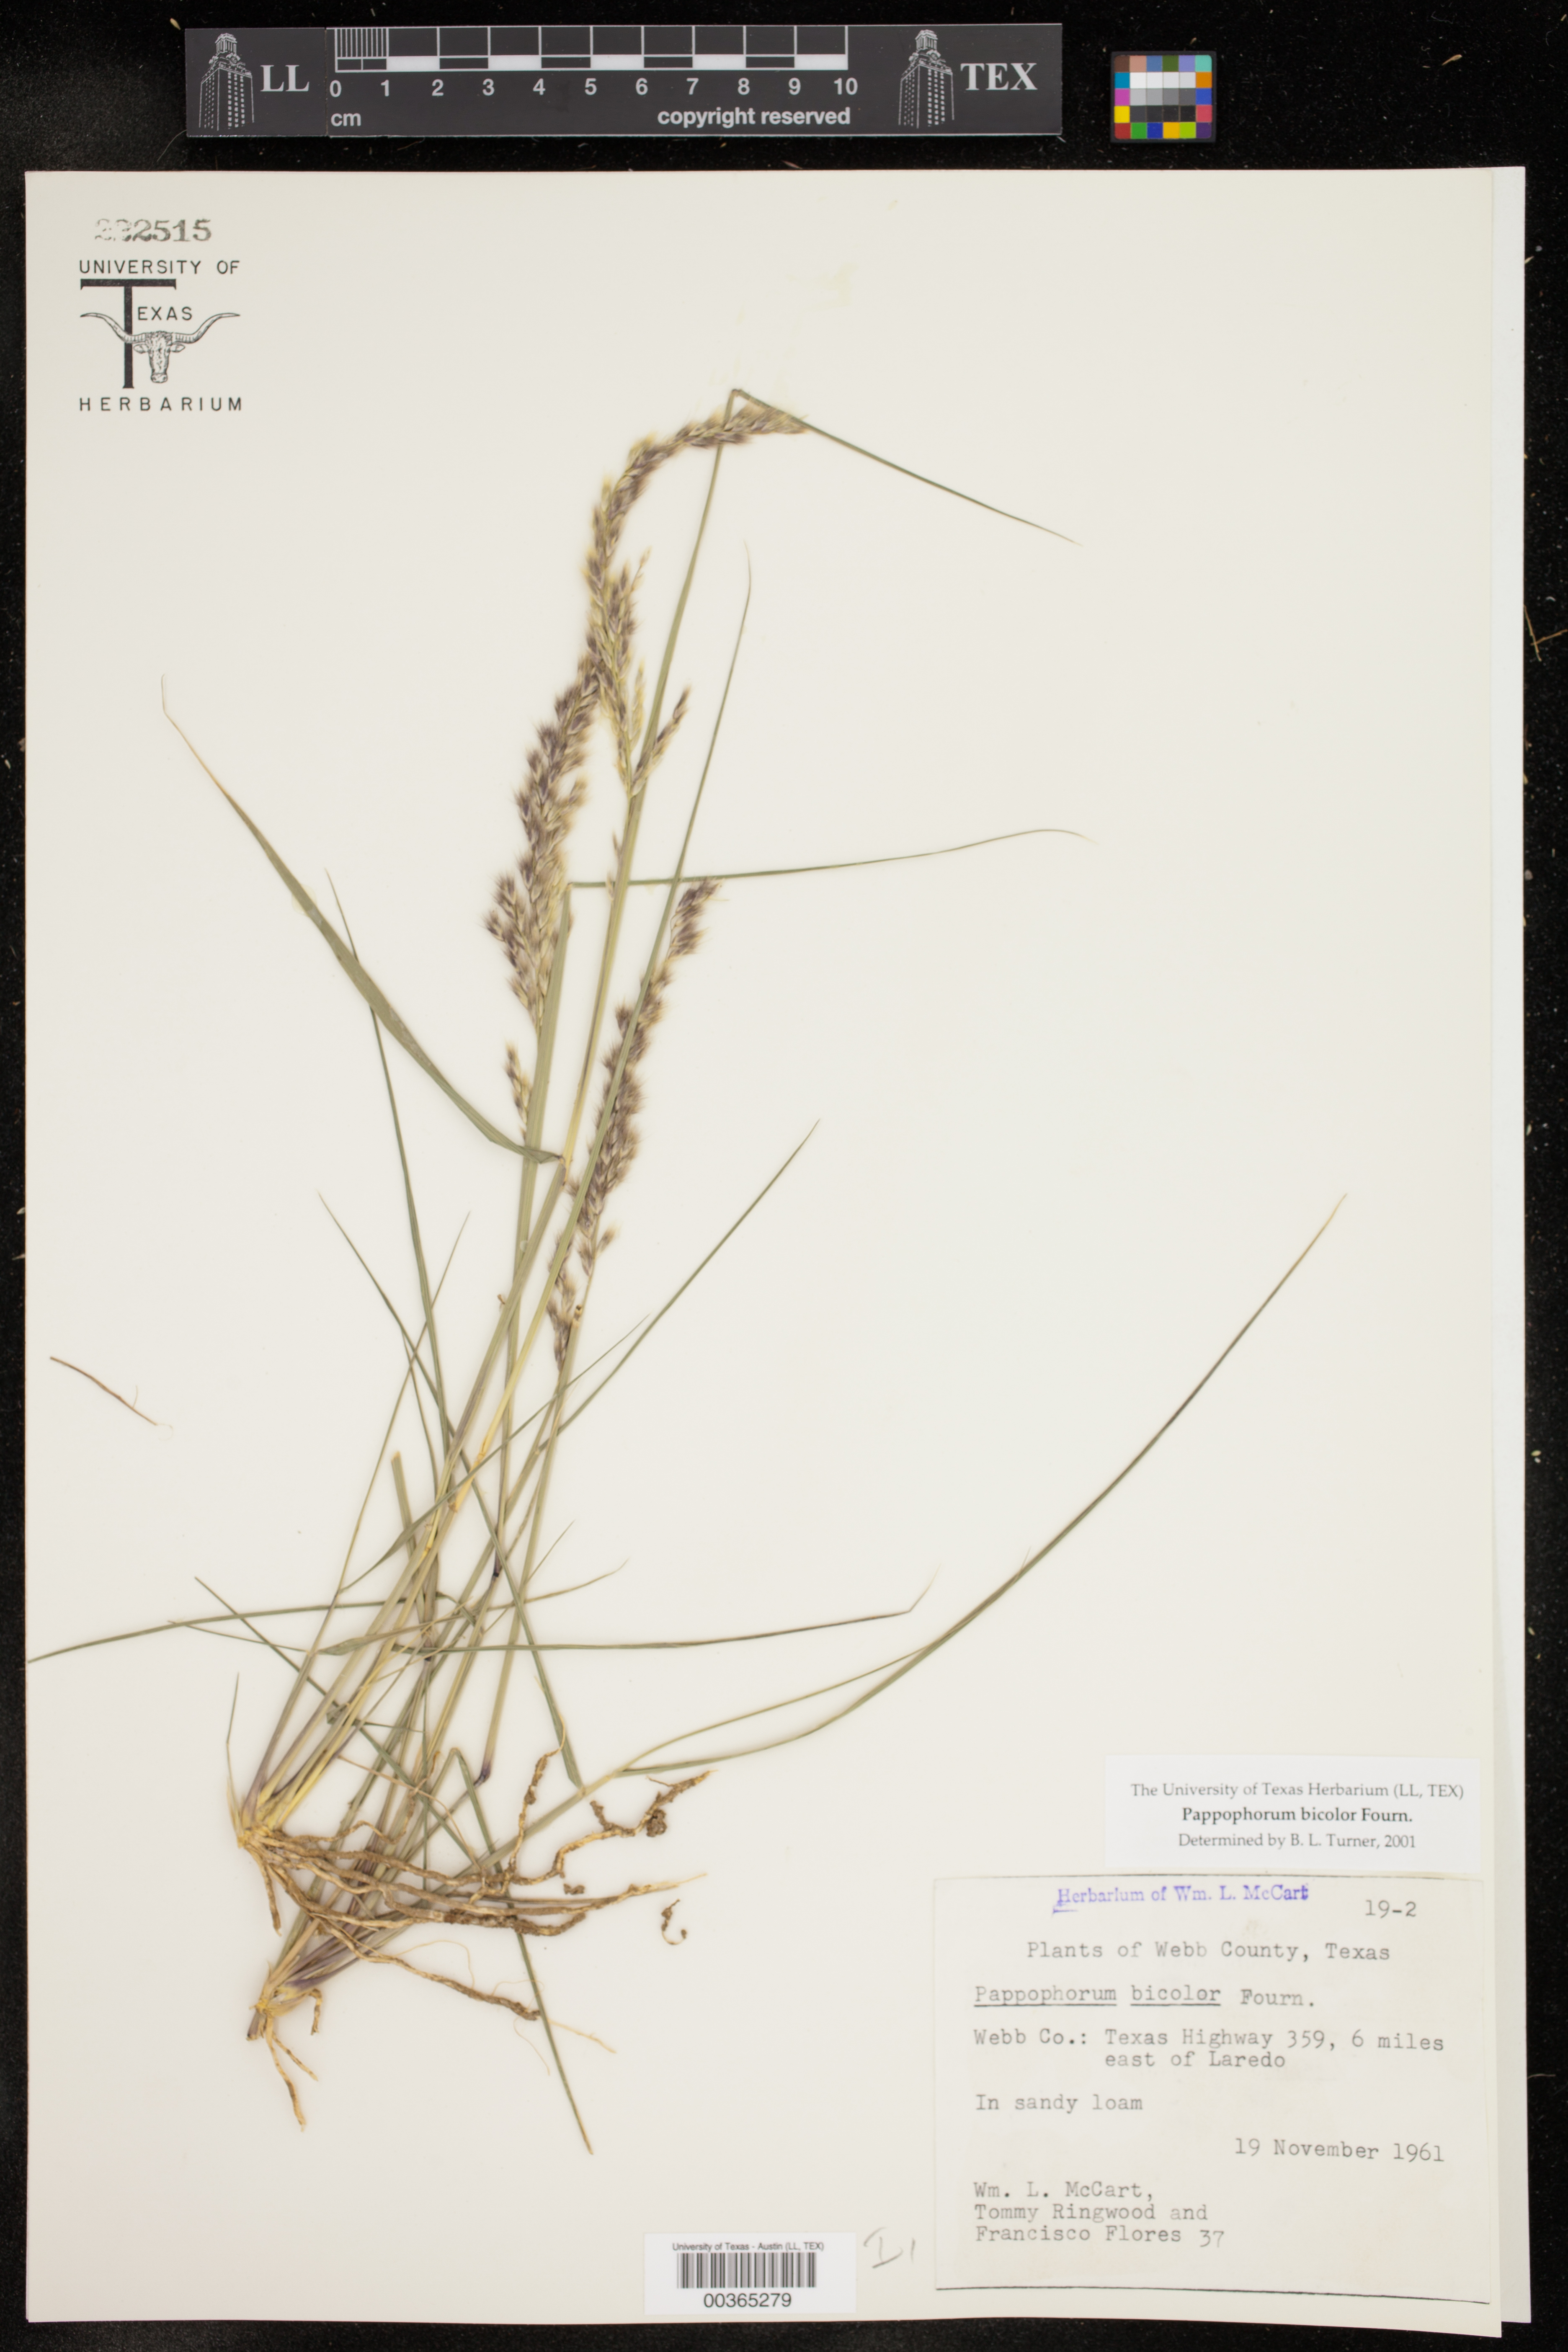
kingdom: Plantae
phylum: Tracheophyta
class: Liliopsida
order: Poales
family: Poaceae
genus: Pappophorum
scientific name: Pappophorum bicolor
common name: Pink pappus grass
